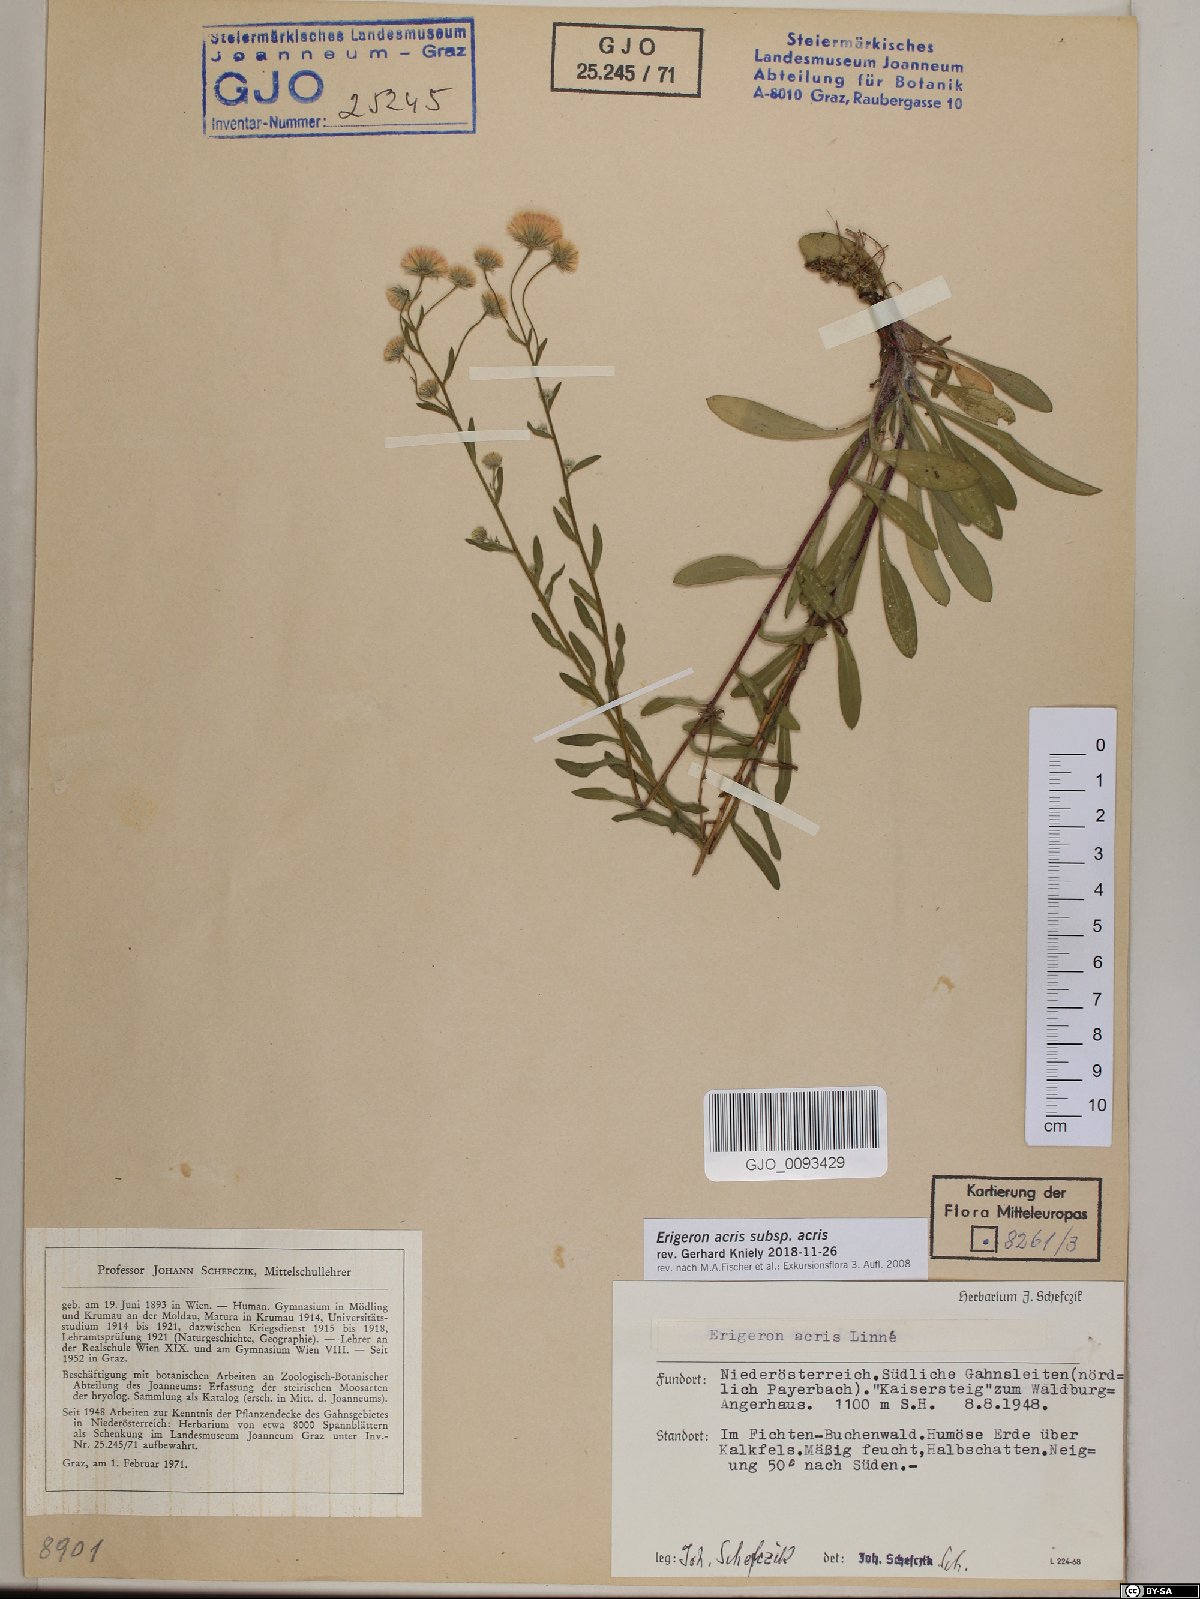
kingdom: Plantae
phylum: Tracheophyta
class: Magnoliopsida
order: Asterales
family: Asteraceae
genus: Erigeron
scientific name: Erigeron acris
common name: Blue fleabane
